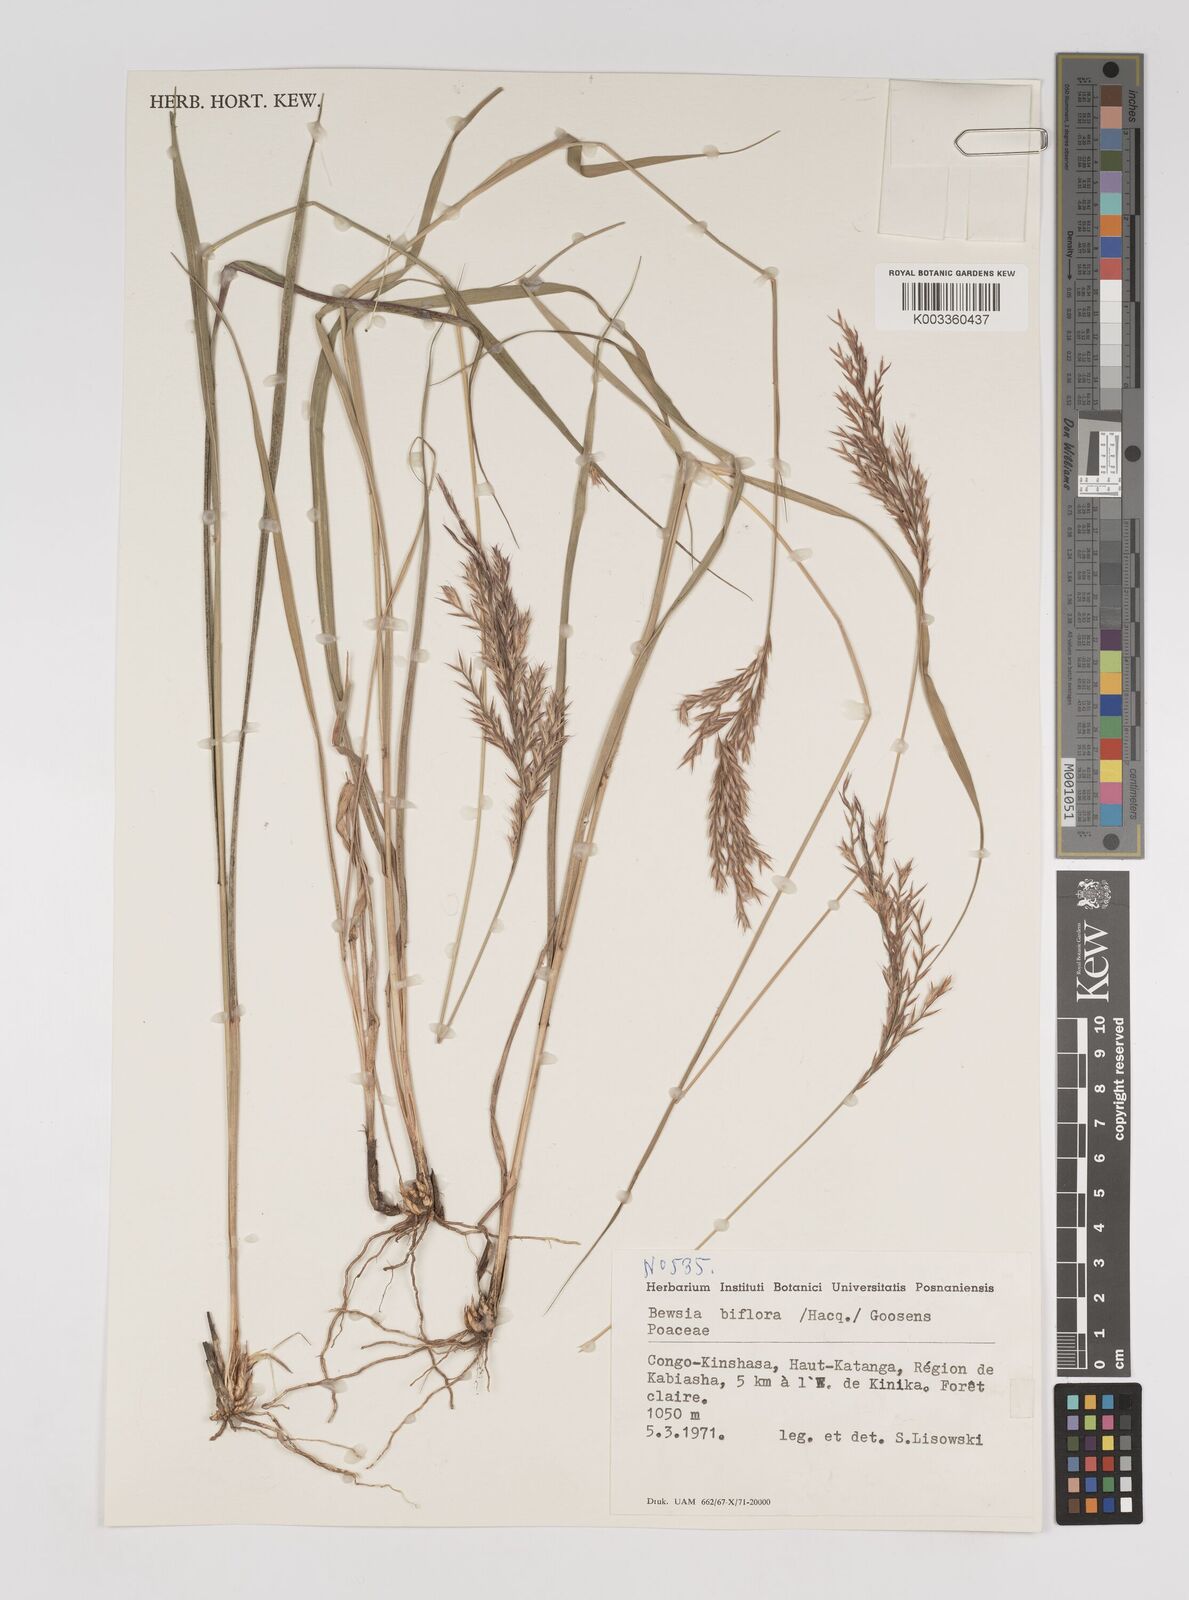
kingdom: Plantae
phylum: Tracheophyta
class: Liliopsida
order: Poales
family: Poaceae
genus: Bewsia
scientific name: Bewsia biflora
